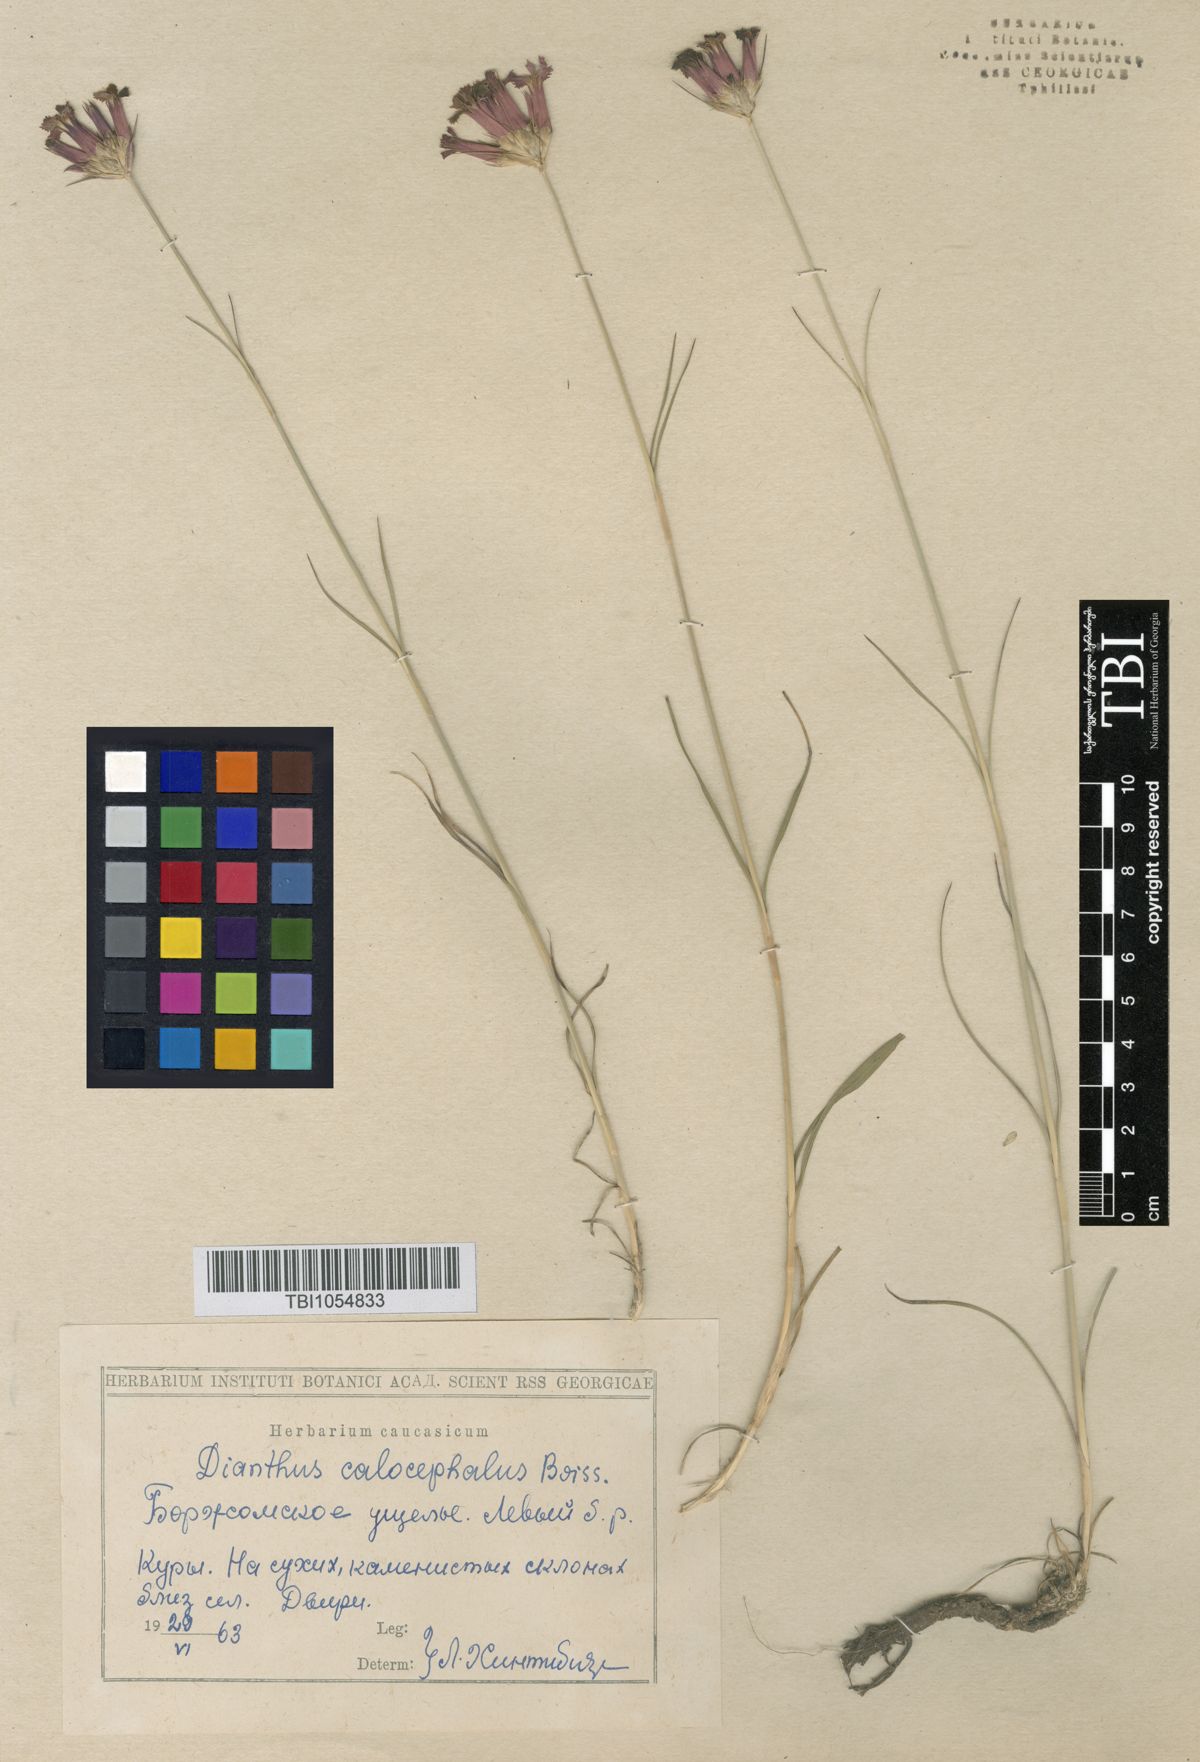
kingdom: Plantae
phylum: Tracheophyta
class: Magnoliopsida
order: Caryophyllales
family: Caryophyllaceae
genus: Dianthus
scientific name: Dianthus cruentus
